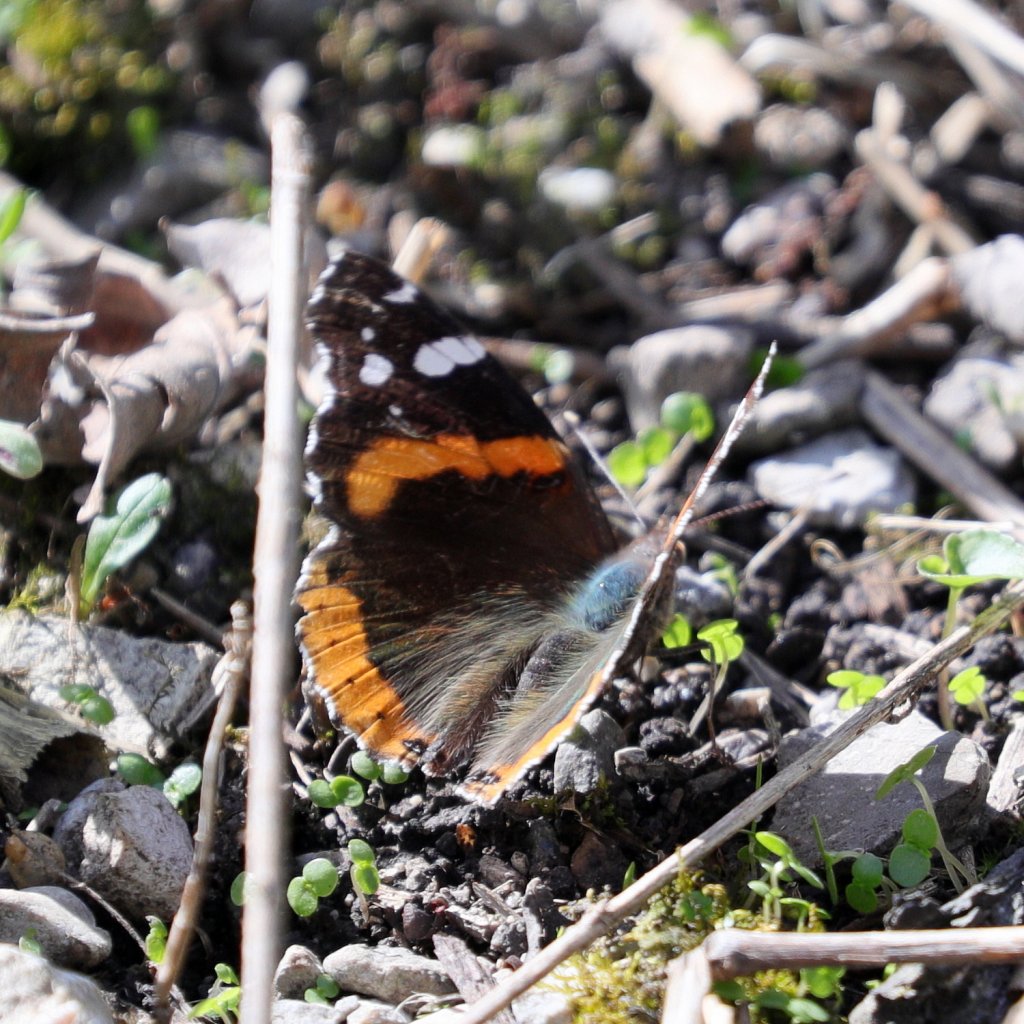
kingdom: Animalia
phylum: Arthropoda
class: Insecta
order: Lepidoptera
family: Nymphalidae
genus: Vanessa
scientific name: Vanessa atalanta
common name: Red Admiral
